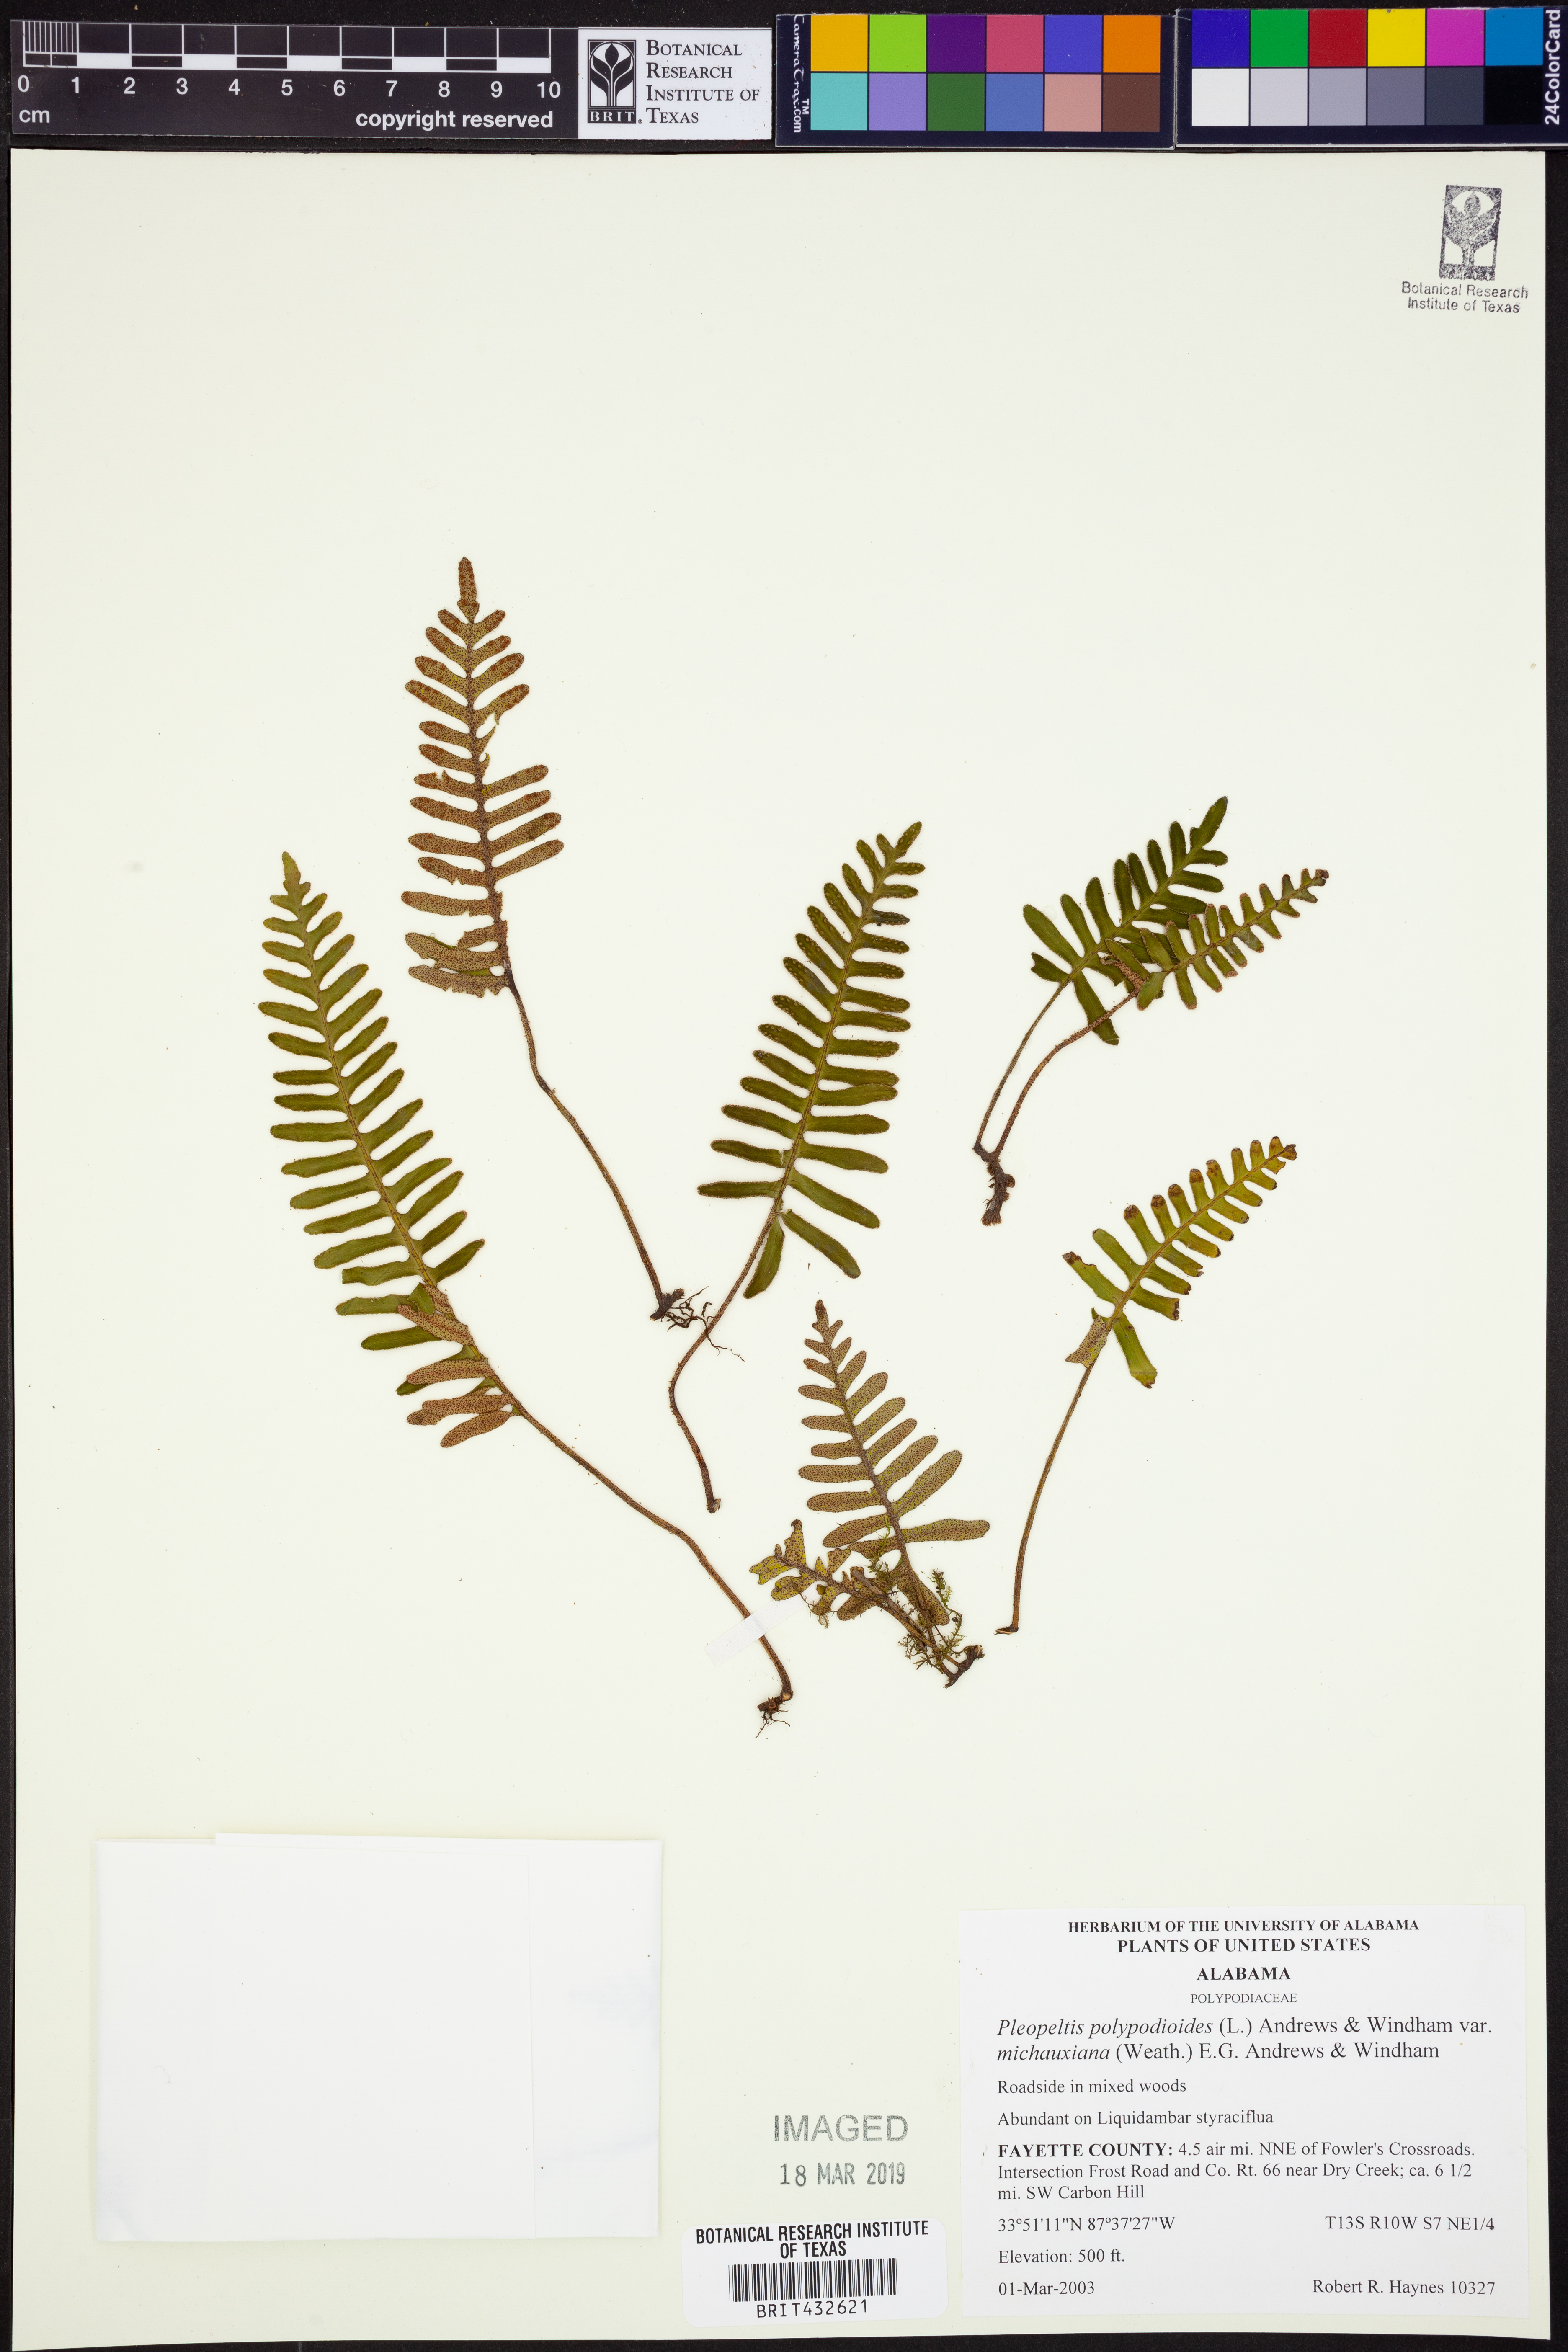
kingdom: Plantae
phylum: Tracheophyta
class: Polypodiopsida
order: Polypodiales
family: Polypodiaceae
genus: Pleopeltis
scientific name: Pleopeltis michauxiana
